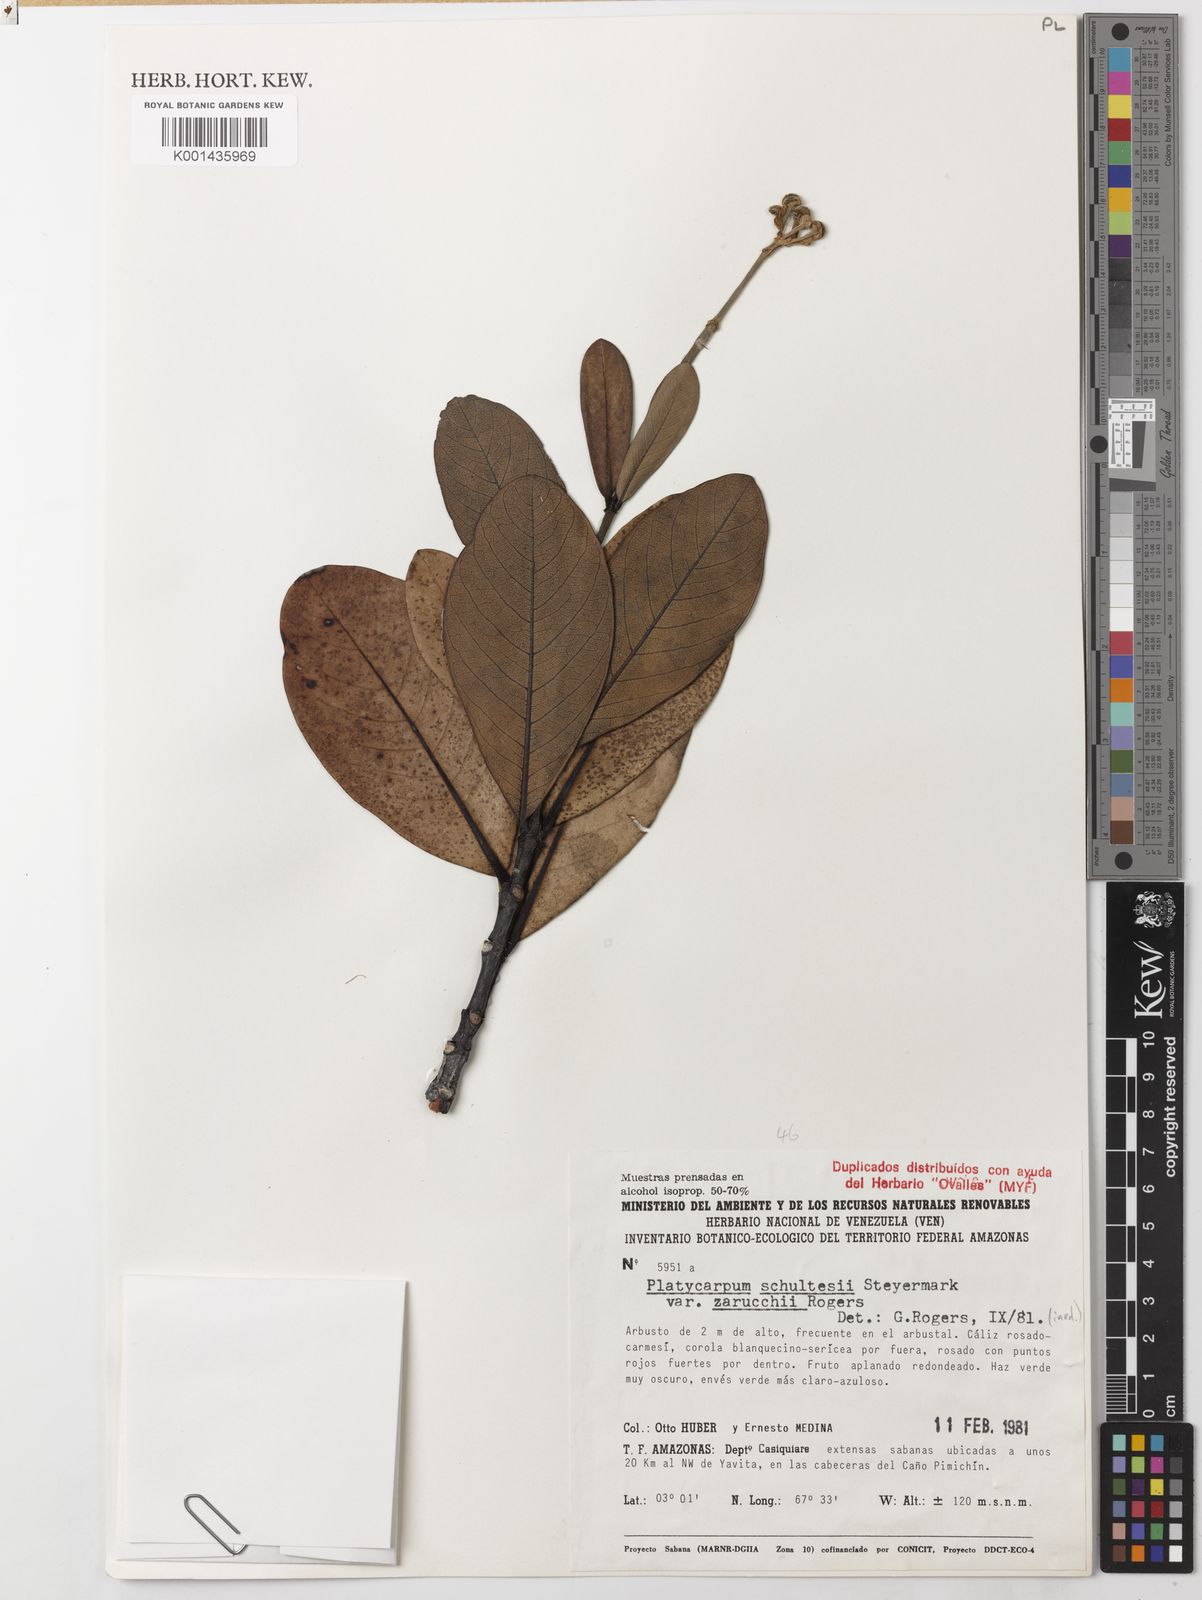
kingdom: Plantae
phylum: Tracheophyta
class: Magnoliopsida
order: Gentianales
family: Rubiaceae
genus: Platycarpum
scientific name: Platycarpum schultesii
